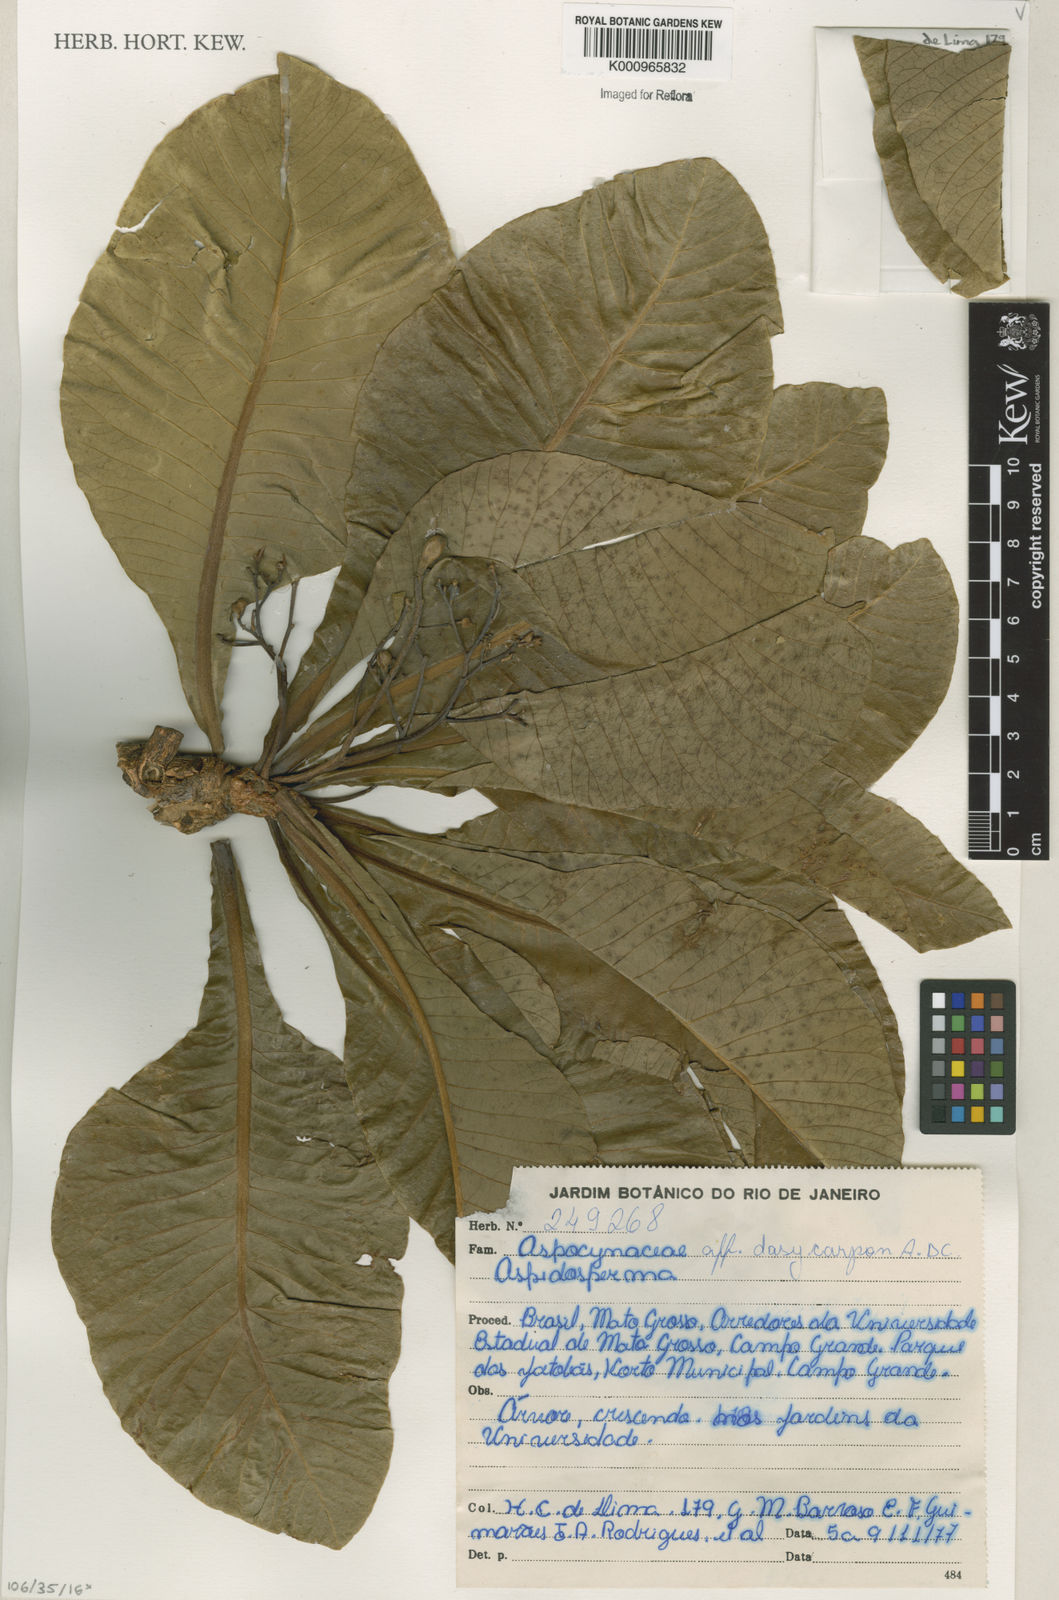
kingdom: Plantae
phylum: Tracheophyta
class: Magnoliopsida
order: Gentianales
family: Apocynaceae
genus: Aspidosperma
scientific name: Aspidosperma tomentosum
